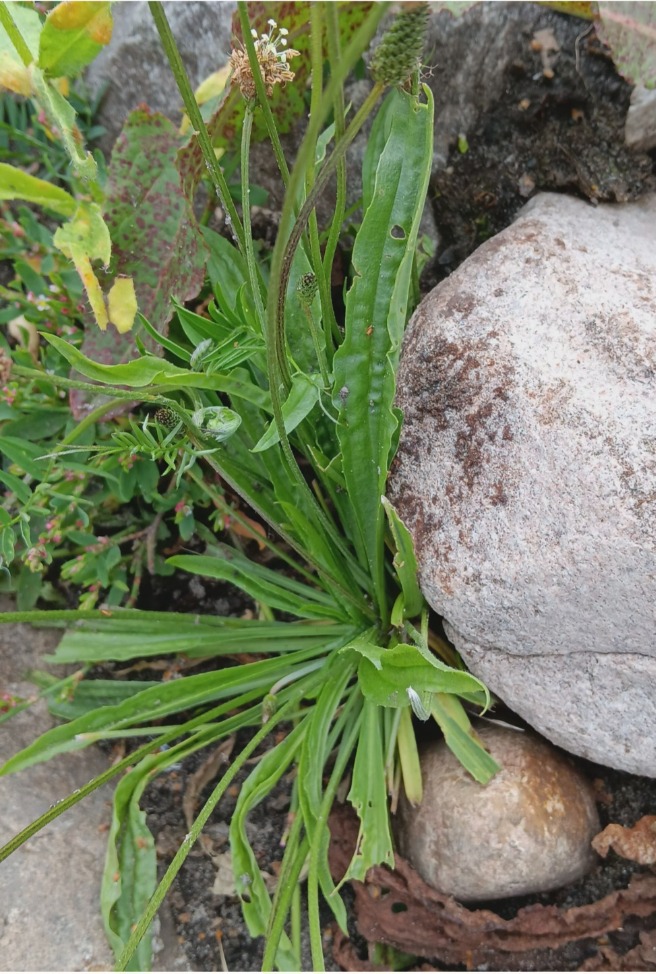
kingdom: Plantae
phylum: Tracheophyta
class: Magnoliopsida
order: Lamiales
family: Plantaginaceae
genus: Plantago
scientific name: Plantago lanceolata
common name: Lancet-vejbred
